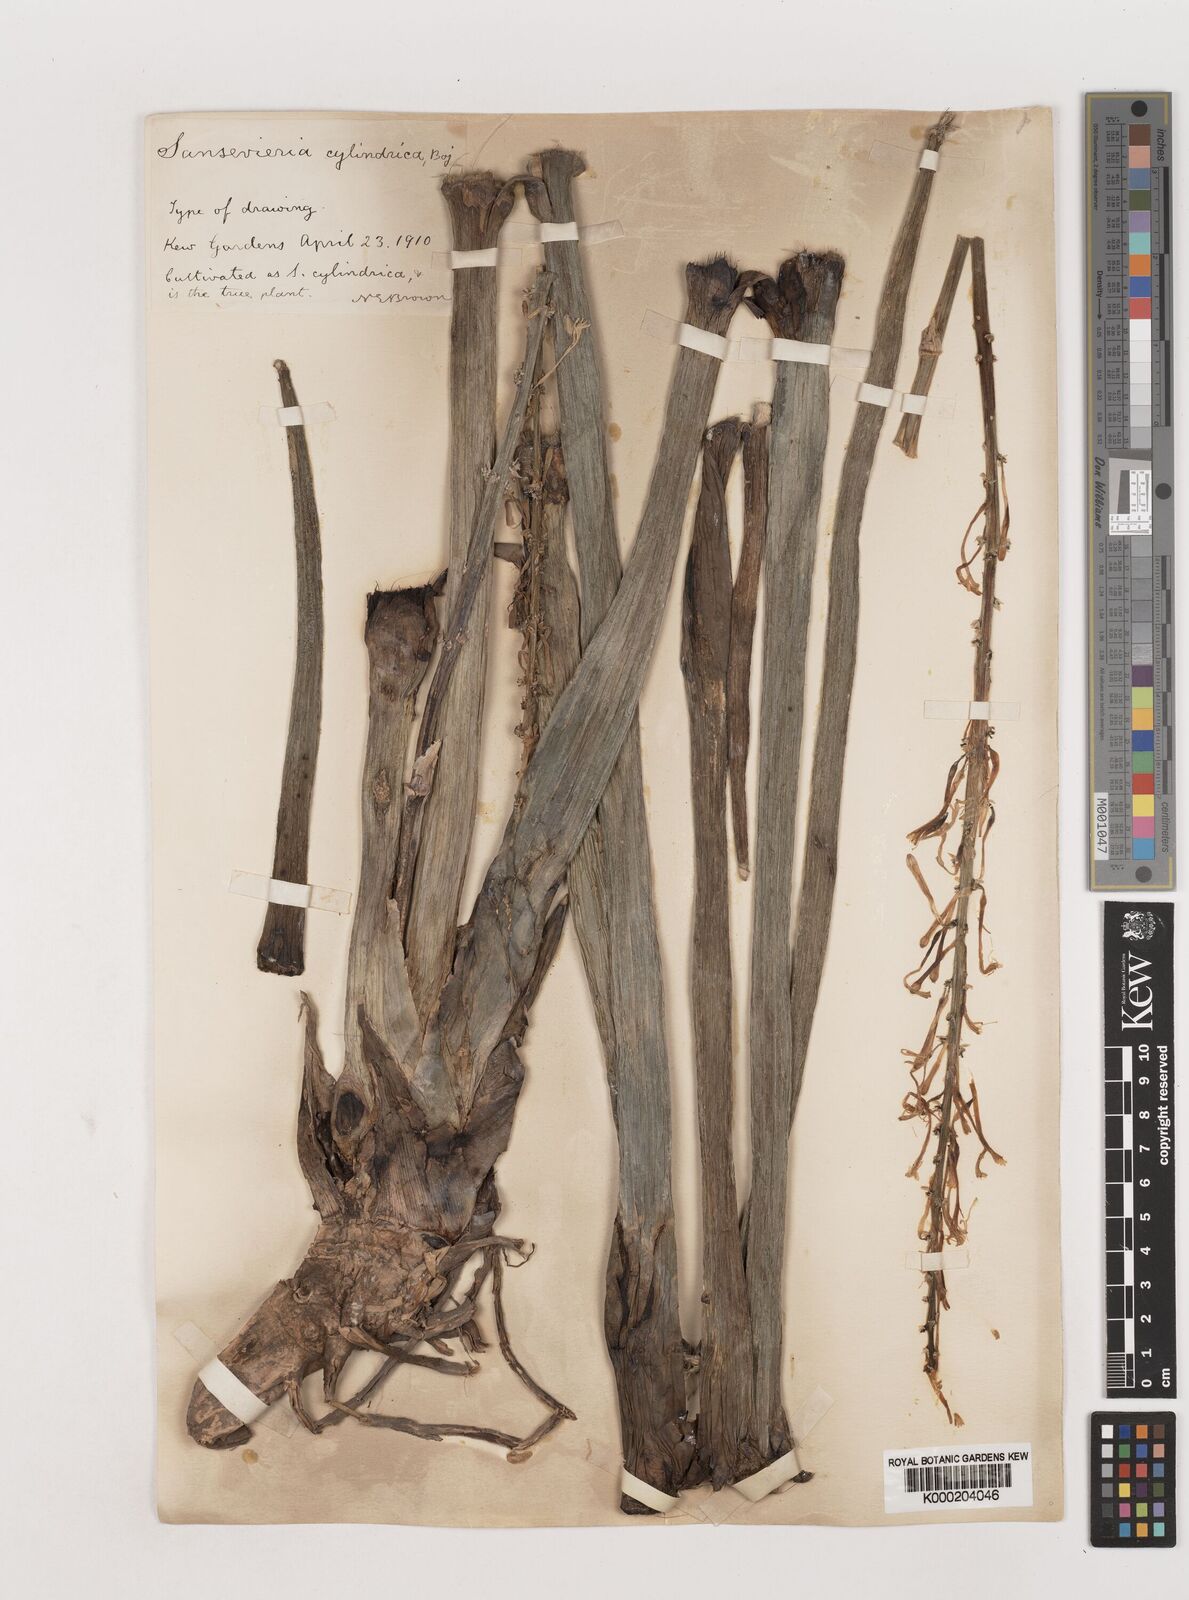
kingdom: Plantae
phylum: Tracheophyta
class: Liliopsida
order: Asparagales
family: Asparagaceae
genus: Dracaena
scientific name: Dracaena angolensis
